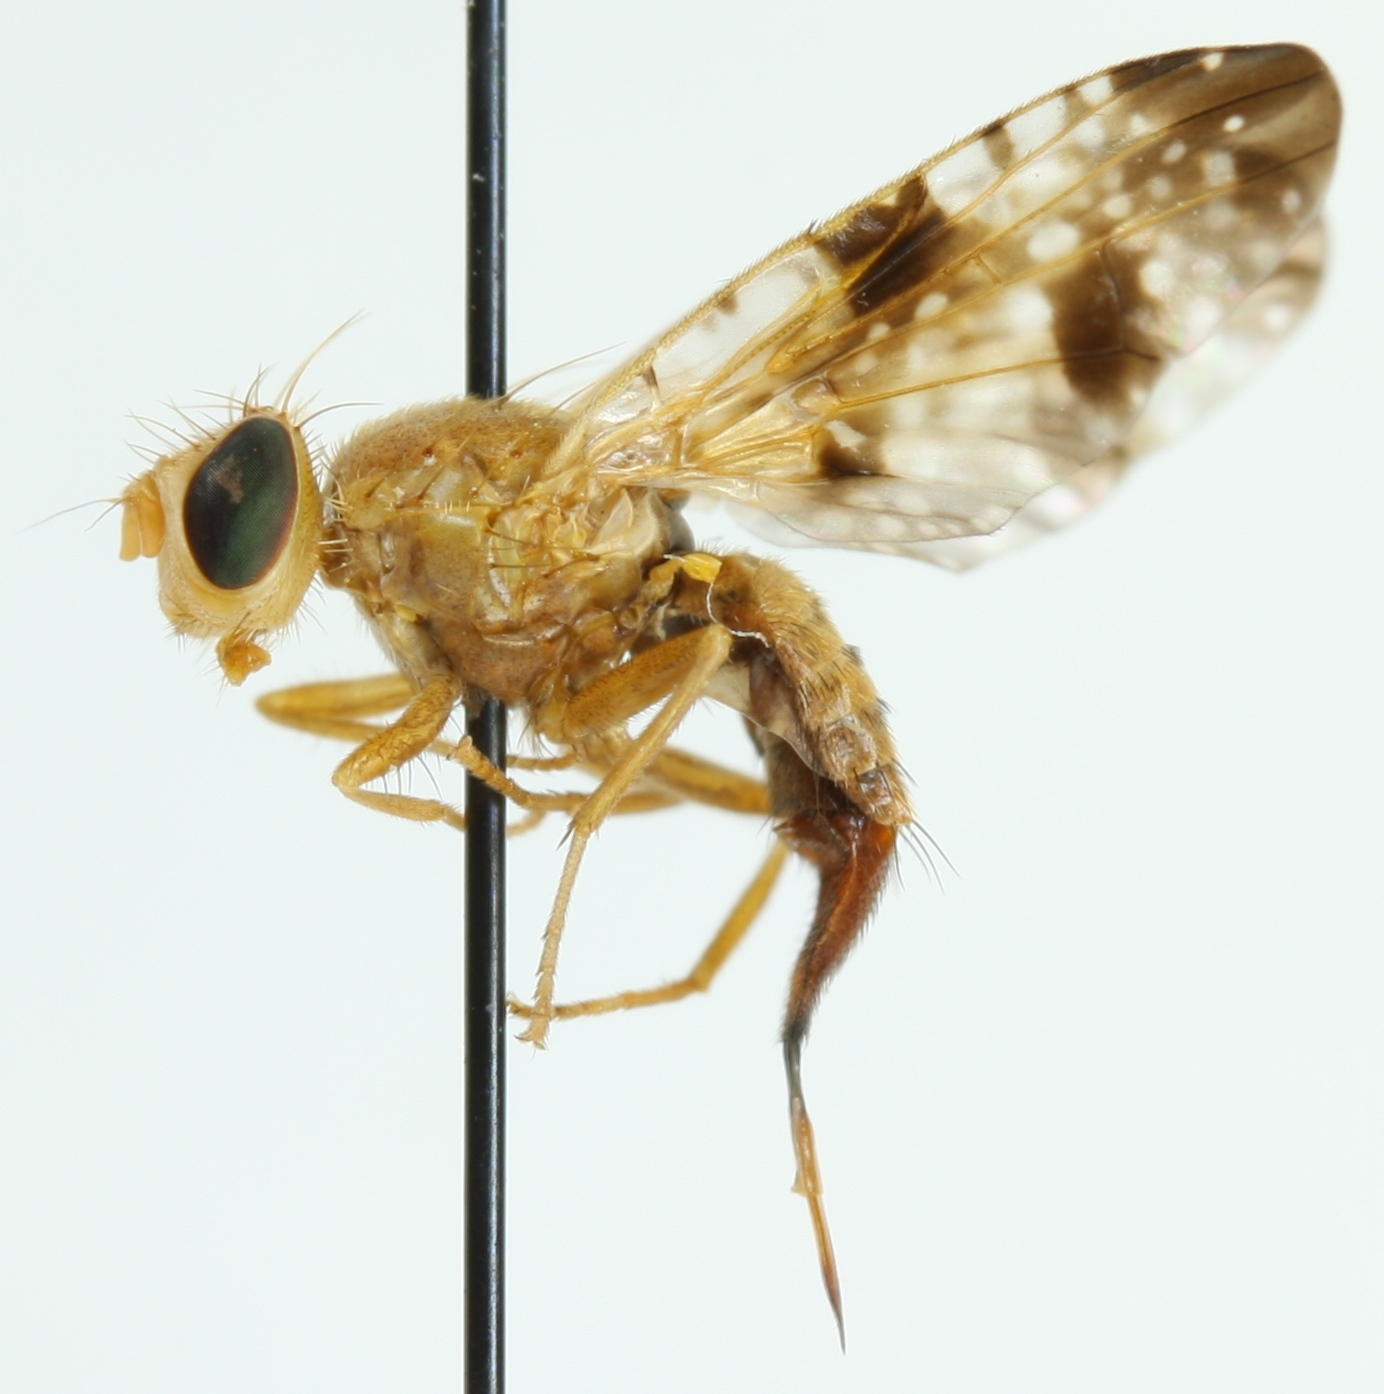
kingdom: Animalia
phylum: Arthropoda
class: Insecta
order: Diptera
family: Tephritidae
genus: Xyphosia
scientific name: Xyphosia miliaria
